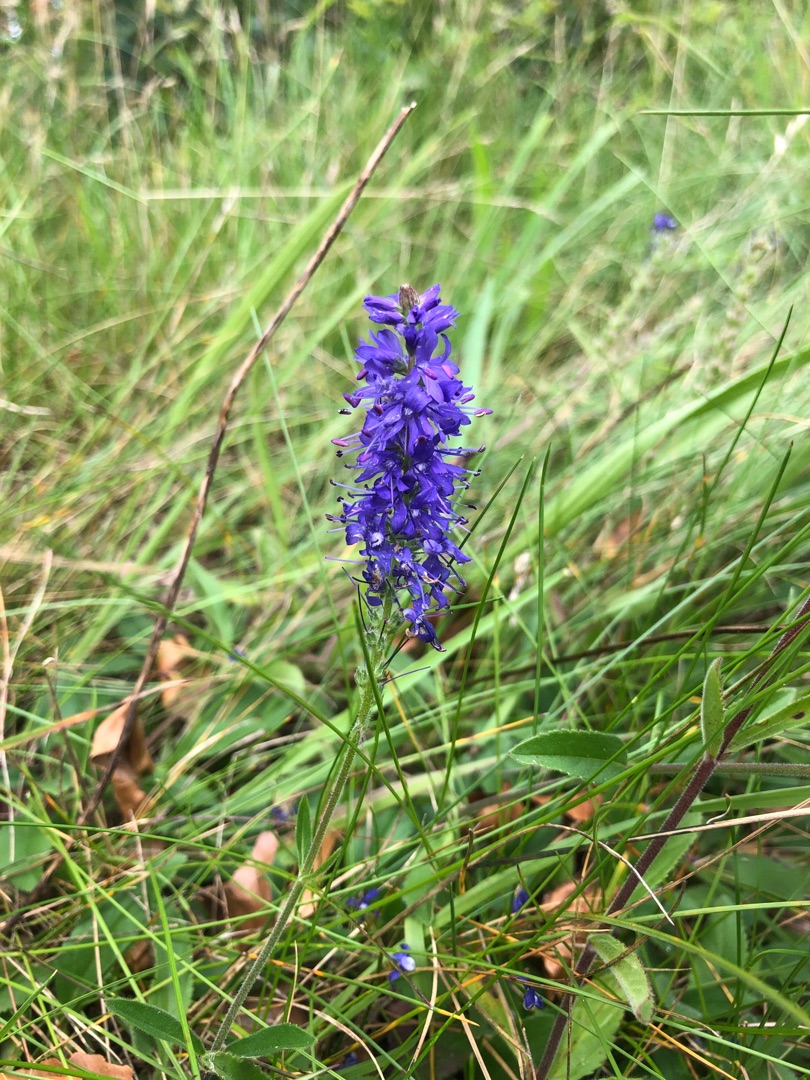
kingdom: Plantae
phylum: Tracheophyta
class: Magnoliopsida
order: Lamiales
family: Plantaginaceae
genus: Veronica
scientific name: Veronica spicata
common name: Aks-ærenpris
